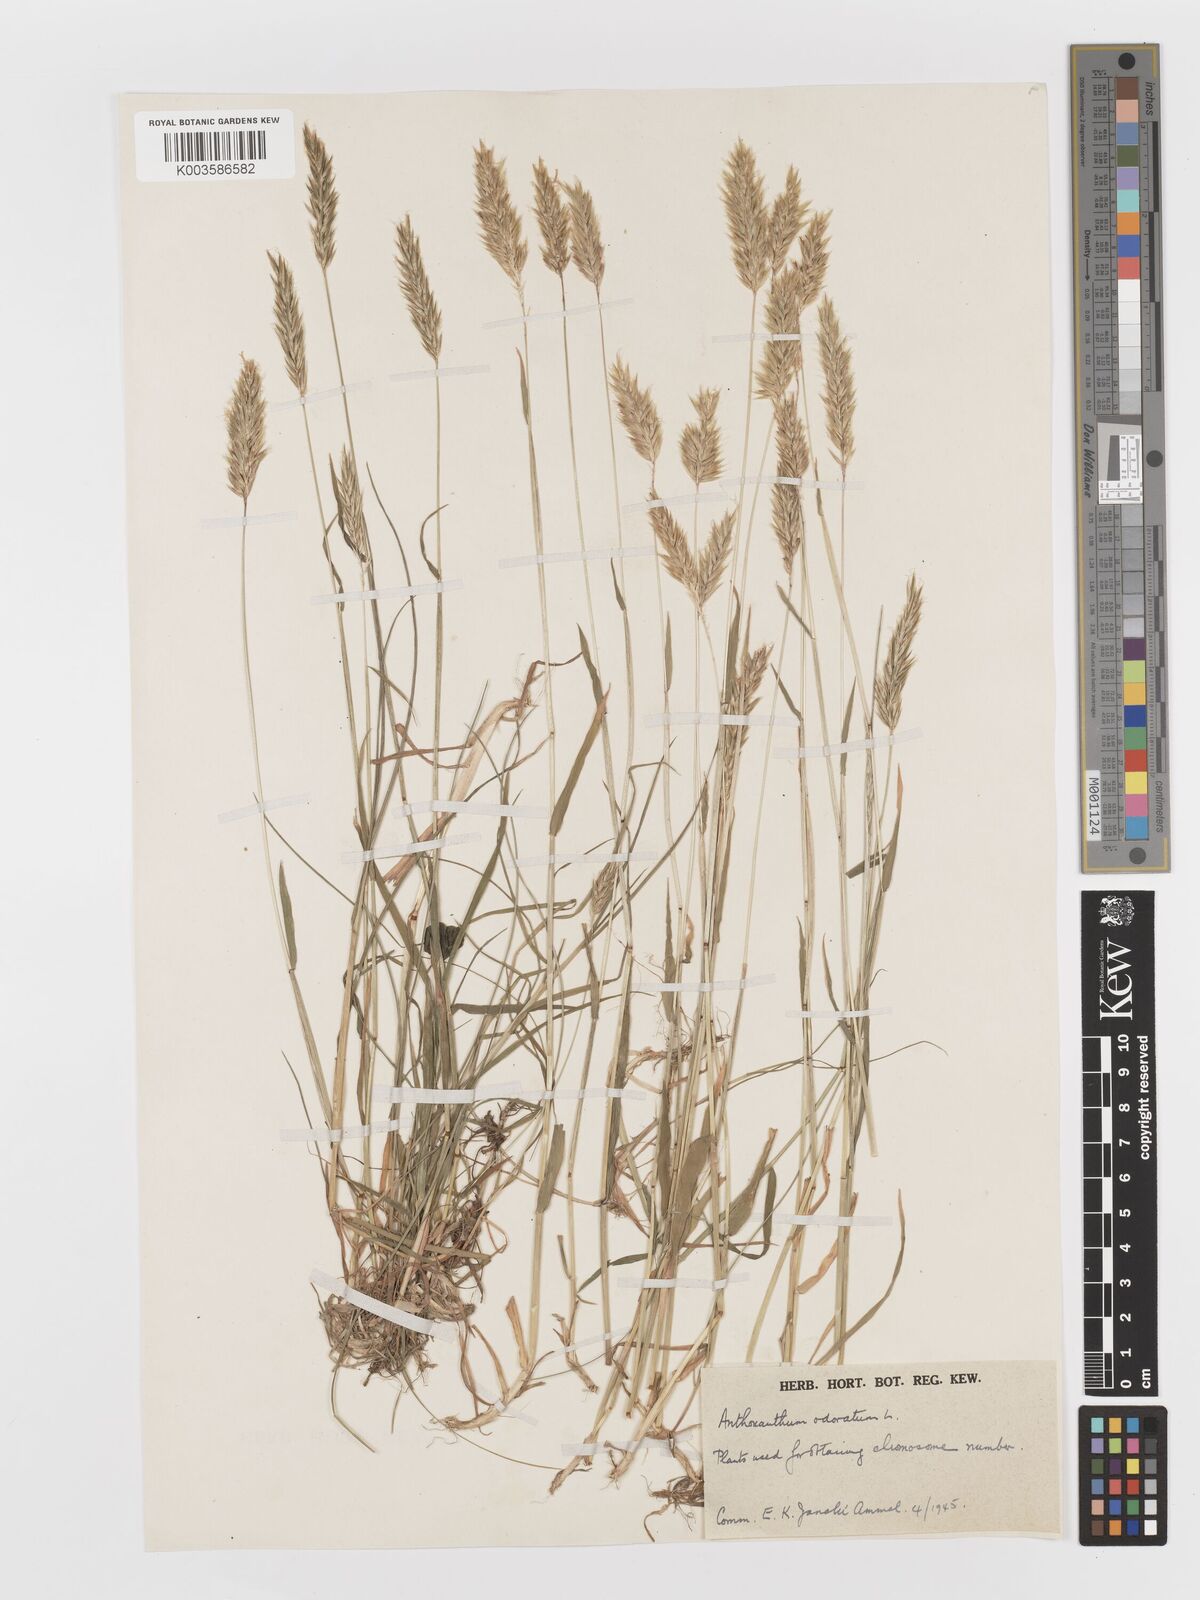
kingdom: Plantae
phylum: Tracheophyta
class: Liliopsida
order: Poales
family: Poaceae
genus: Anthoxanthum
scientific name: Anthoxanthum odoratum
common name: Sweet vernalgrass
